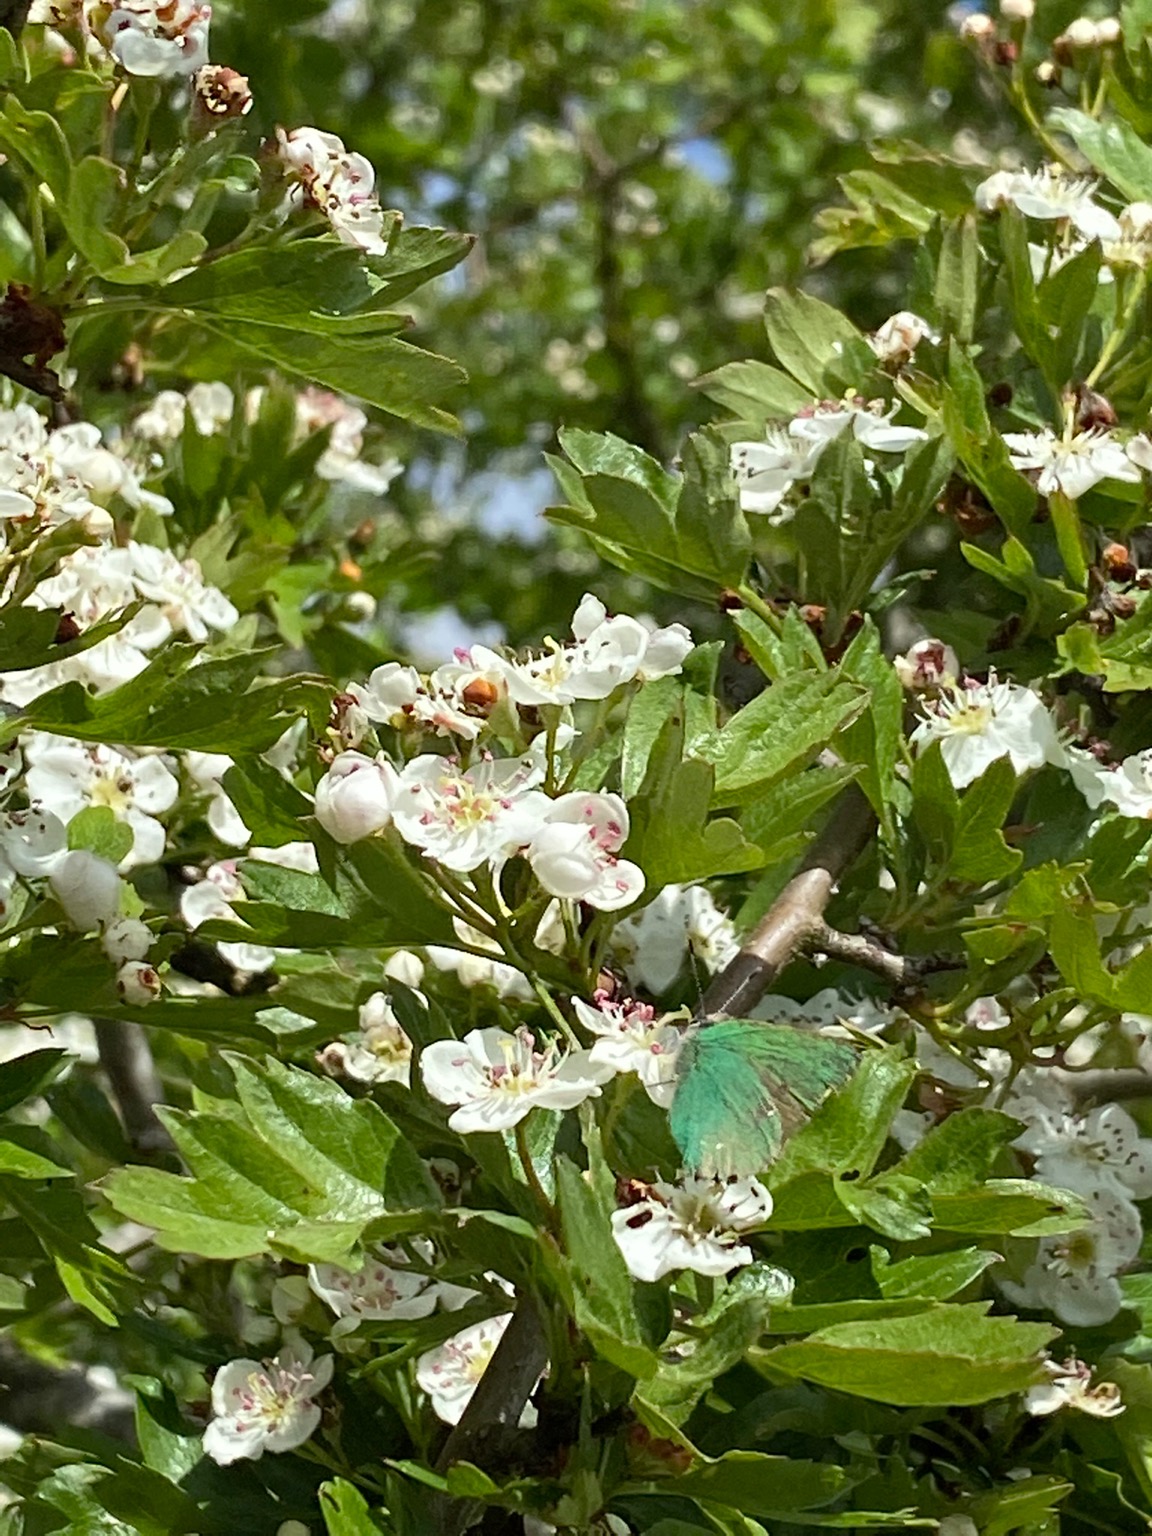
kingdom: Animalia
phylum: Arthropoda
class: Insecta
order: Lepidoptera
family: Lycaenidae
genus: Callophrys
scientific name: Callophrys rubi
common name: Grøn busksommerfugl
